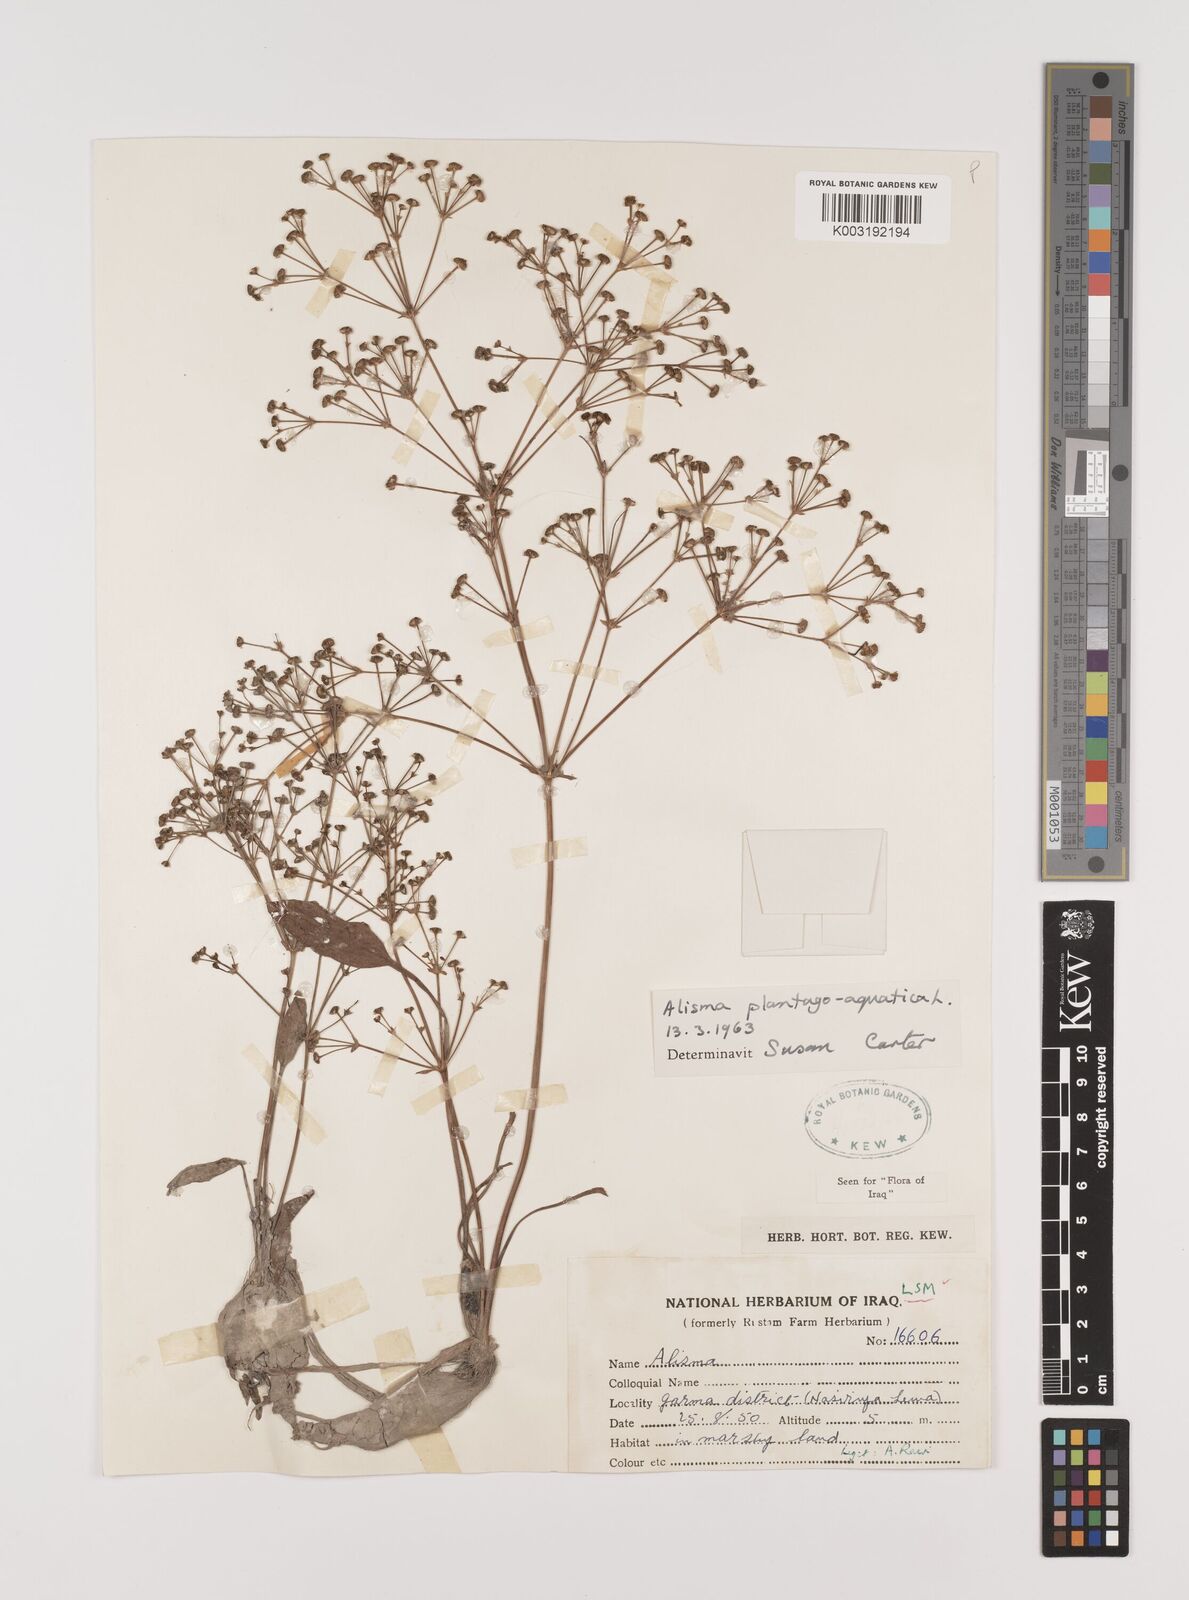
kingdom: Plantae
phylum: Tracheophyta
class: Liliopsida
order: Alismatales
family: Alismataceae
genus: Alisma
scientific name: Alisma plantago-aquatica
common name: Water-plantain
